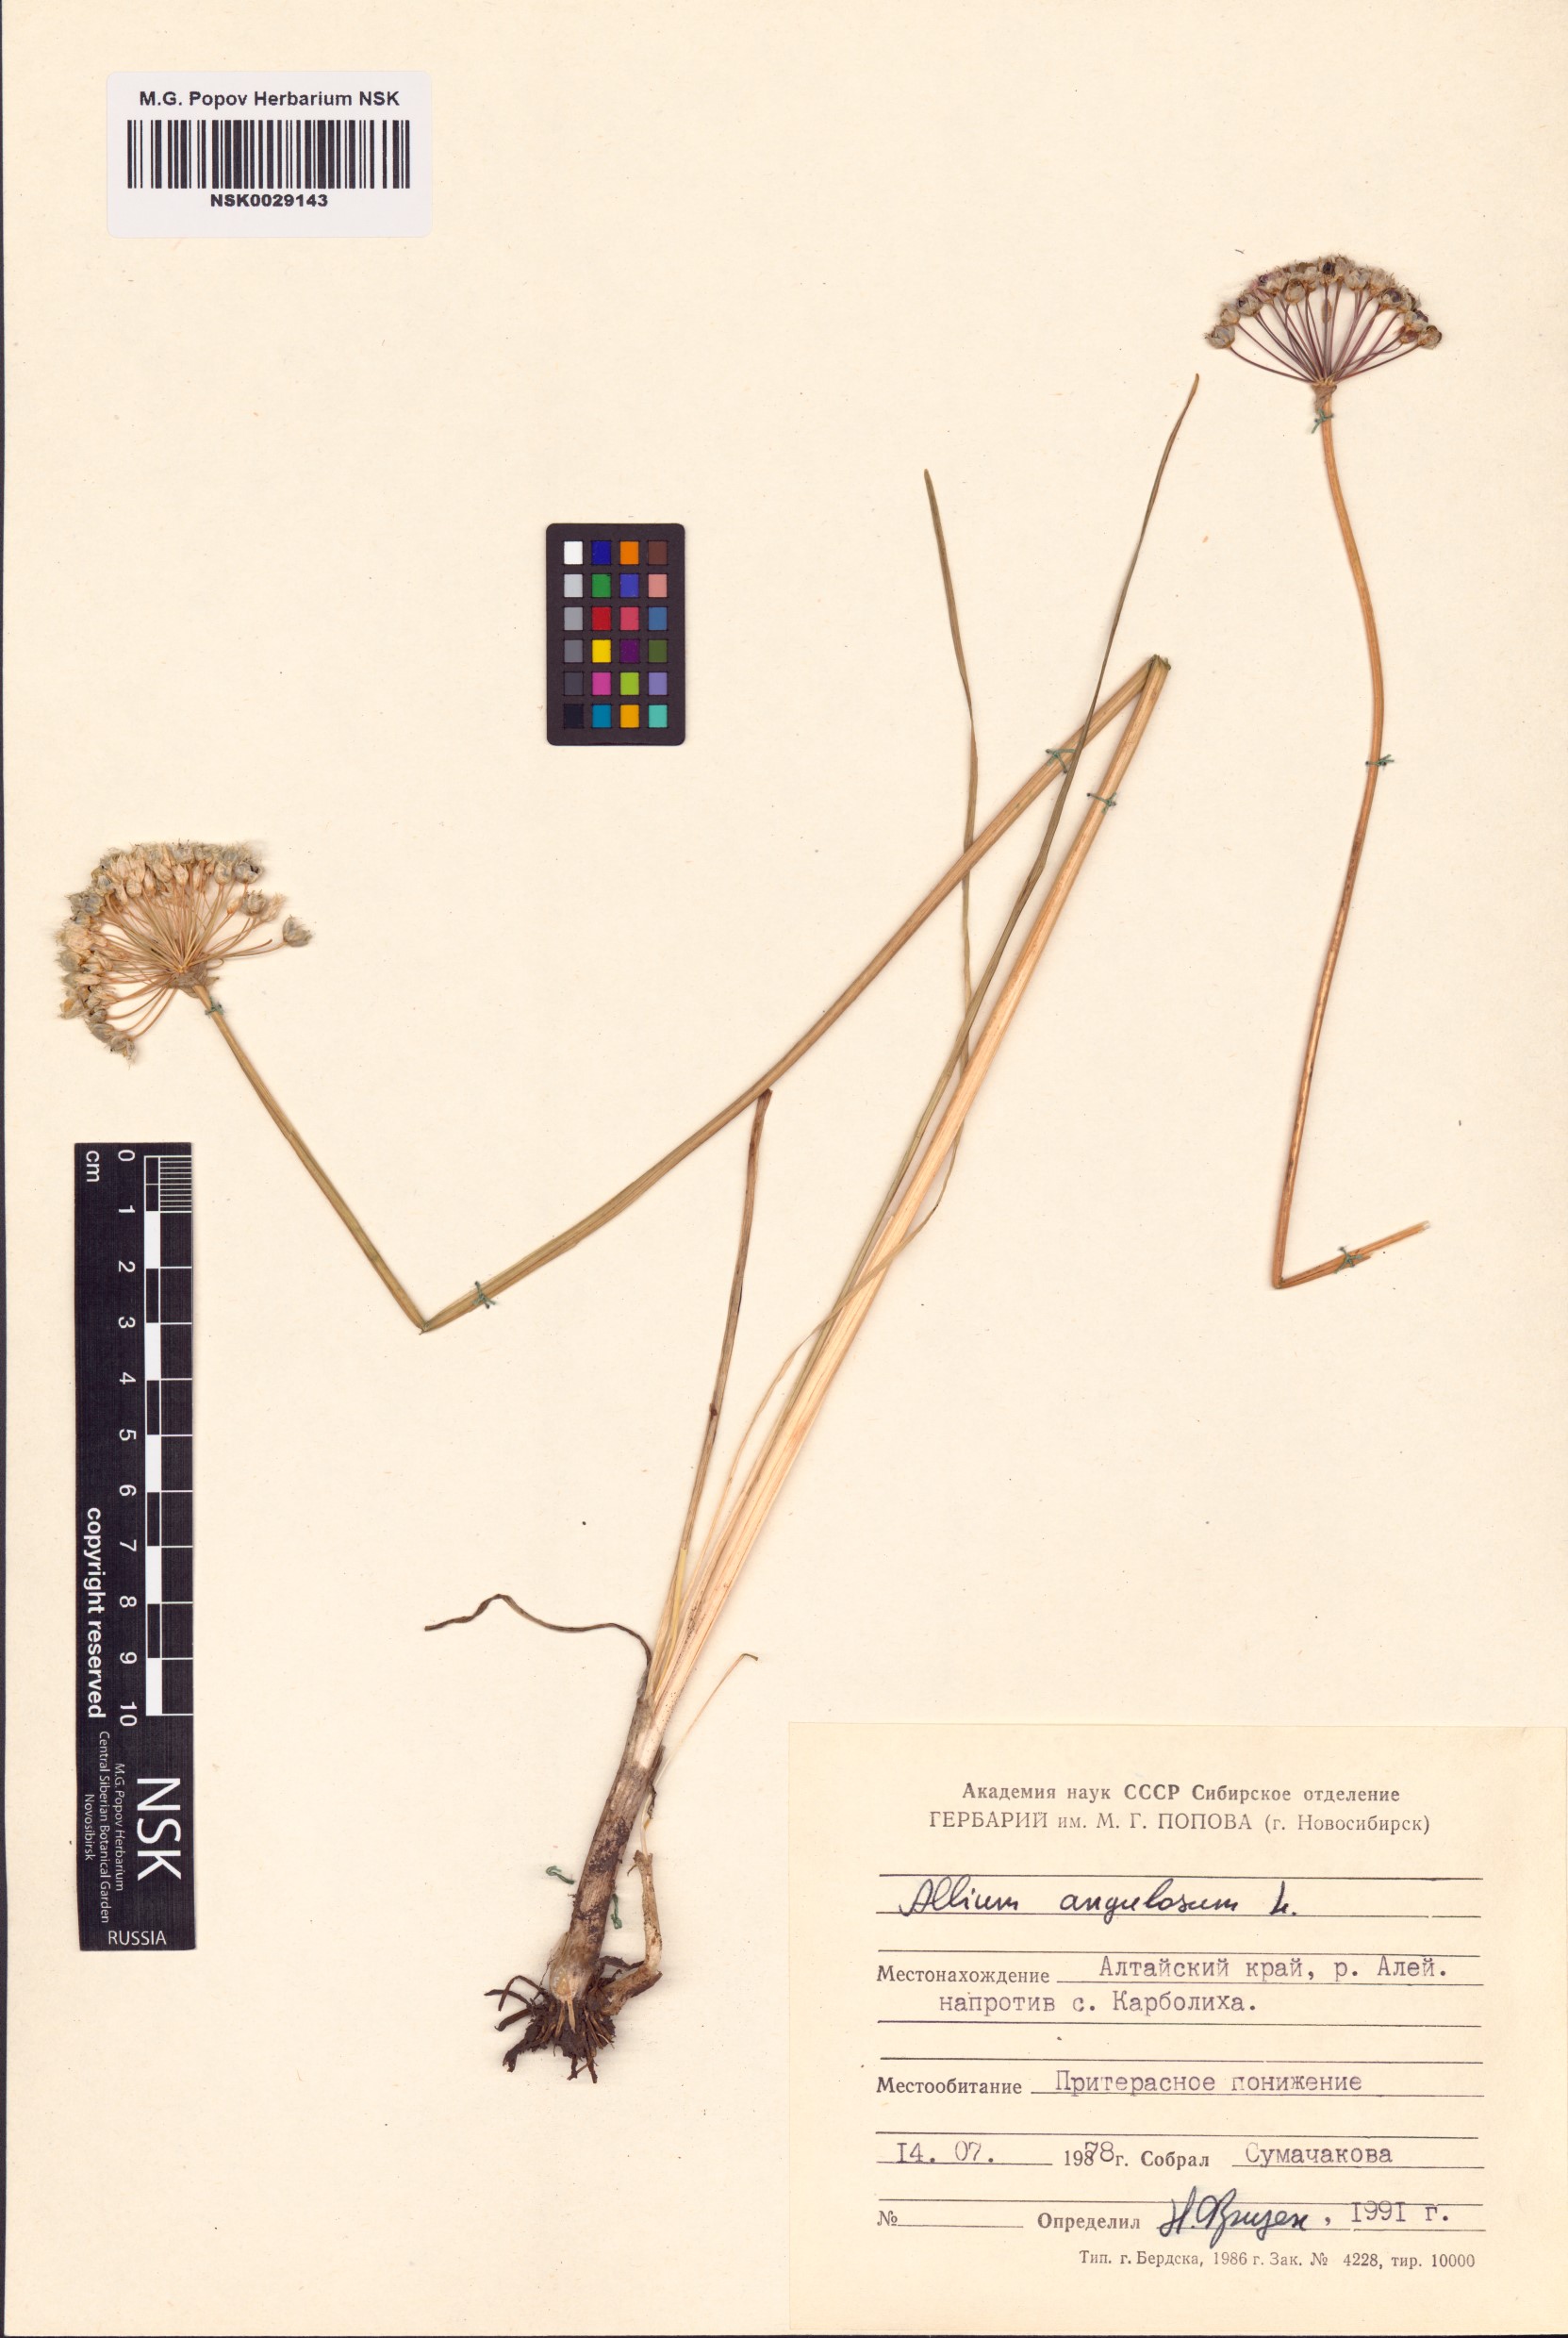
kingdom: Plantae
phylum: Tracheophyta
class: Liliopsida
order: Asparagales
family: Amaryllidaceae
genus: Allium
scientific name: Allium angulosum
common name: Mouse garlic
